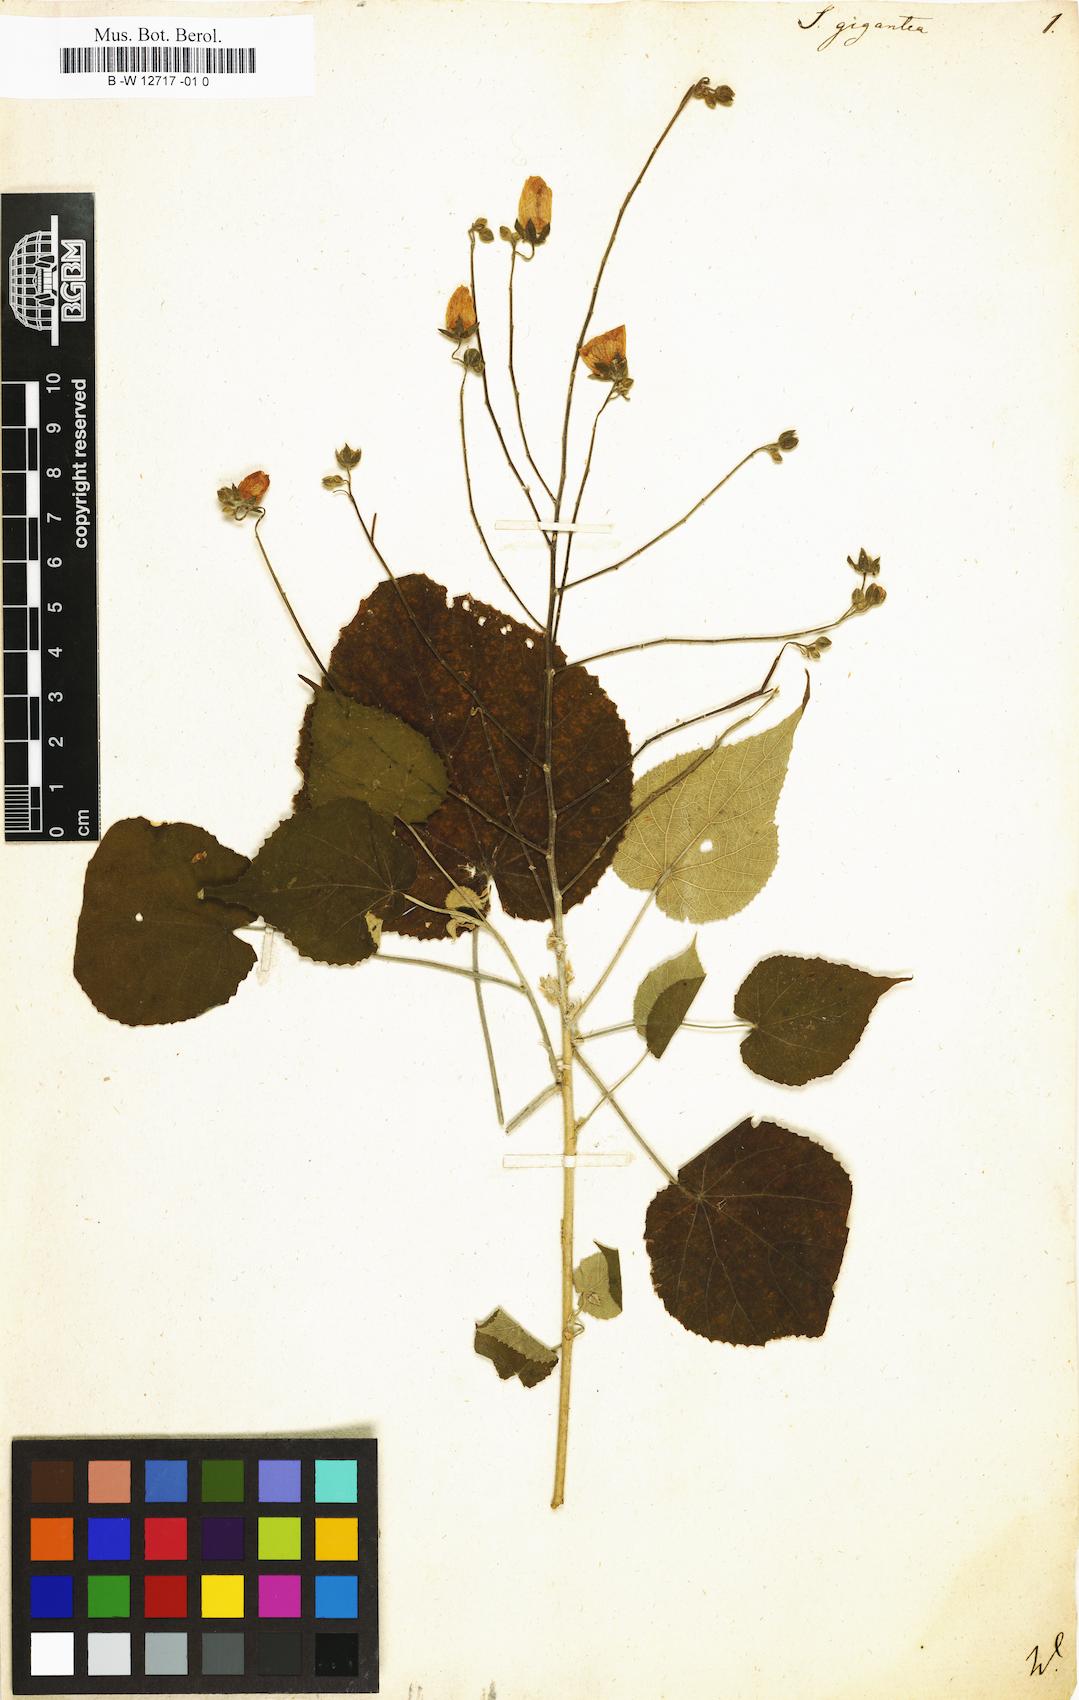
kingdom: Plantae
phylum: Tracheophyta
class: Magnoliopsida
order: Malvales
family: Malvaceae
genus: Abutilon
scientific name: Abutilon giganteum
